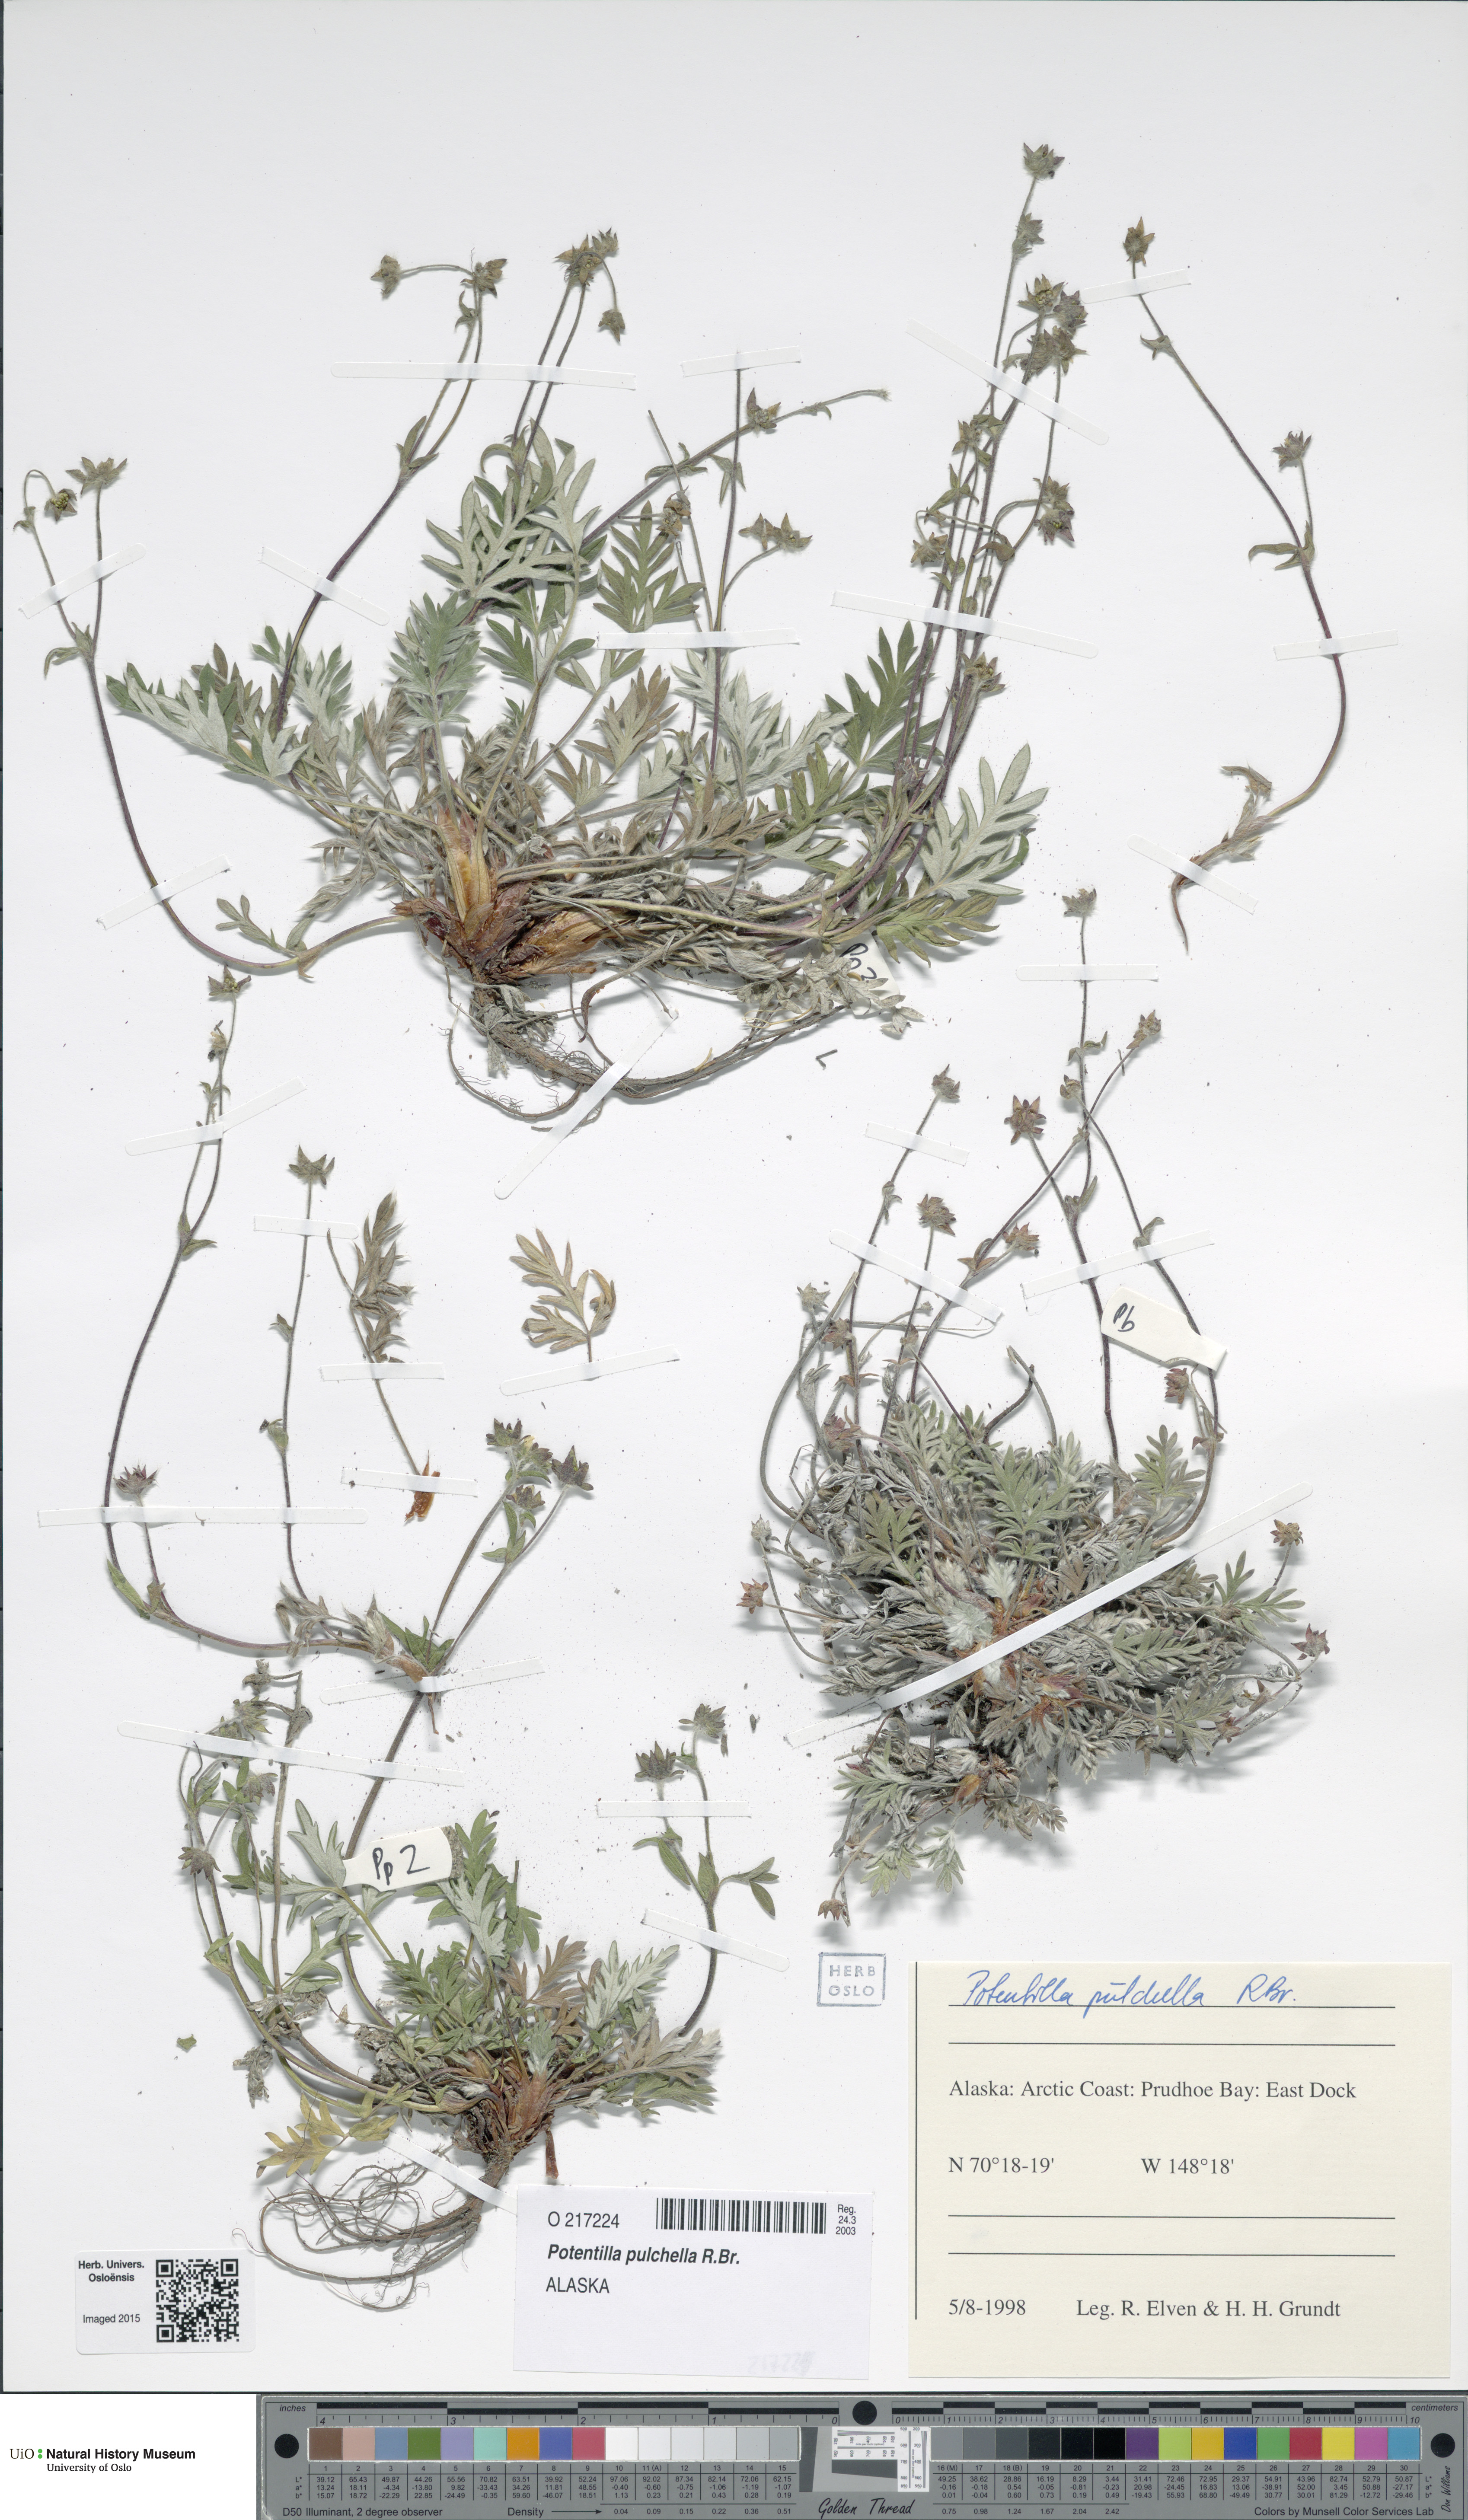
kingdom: Plantae
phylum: Tracheophyta
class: Magnoliopsida
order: Rosales
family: Rosaceae
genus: Potentilla
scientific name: Potentilla pulchella
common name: Pretty cinquefoil
